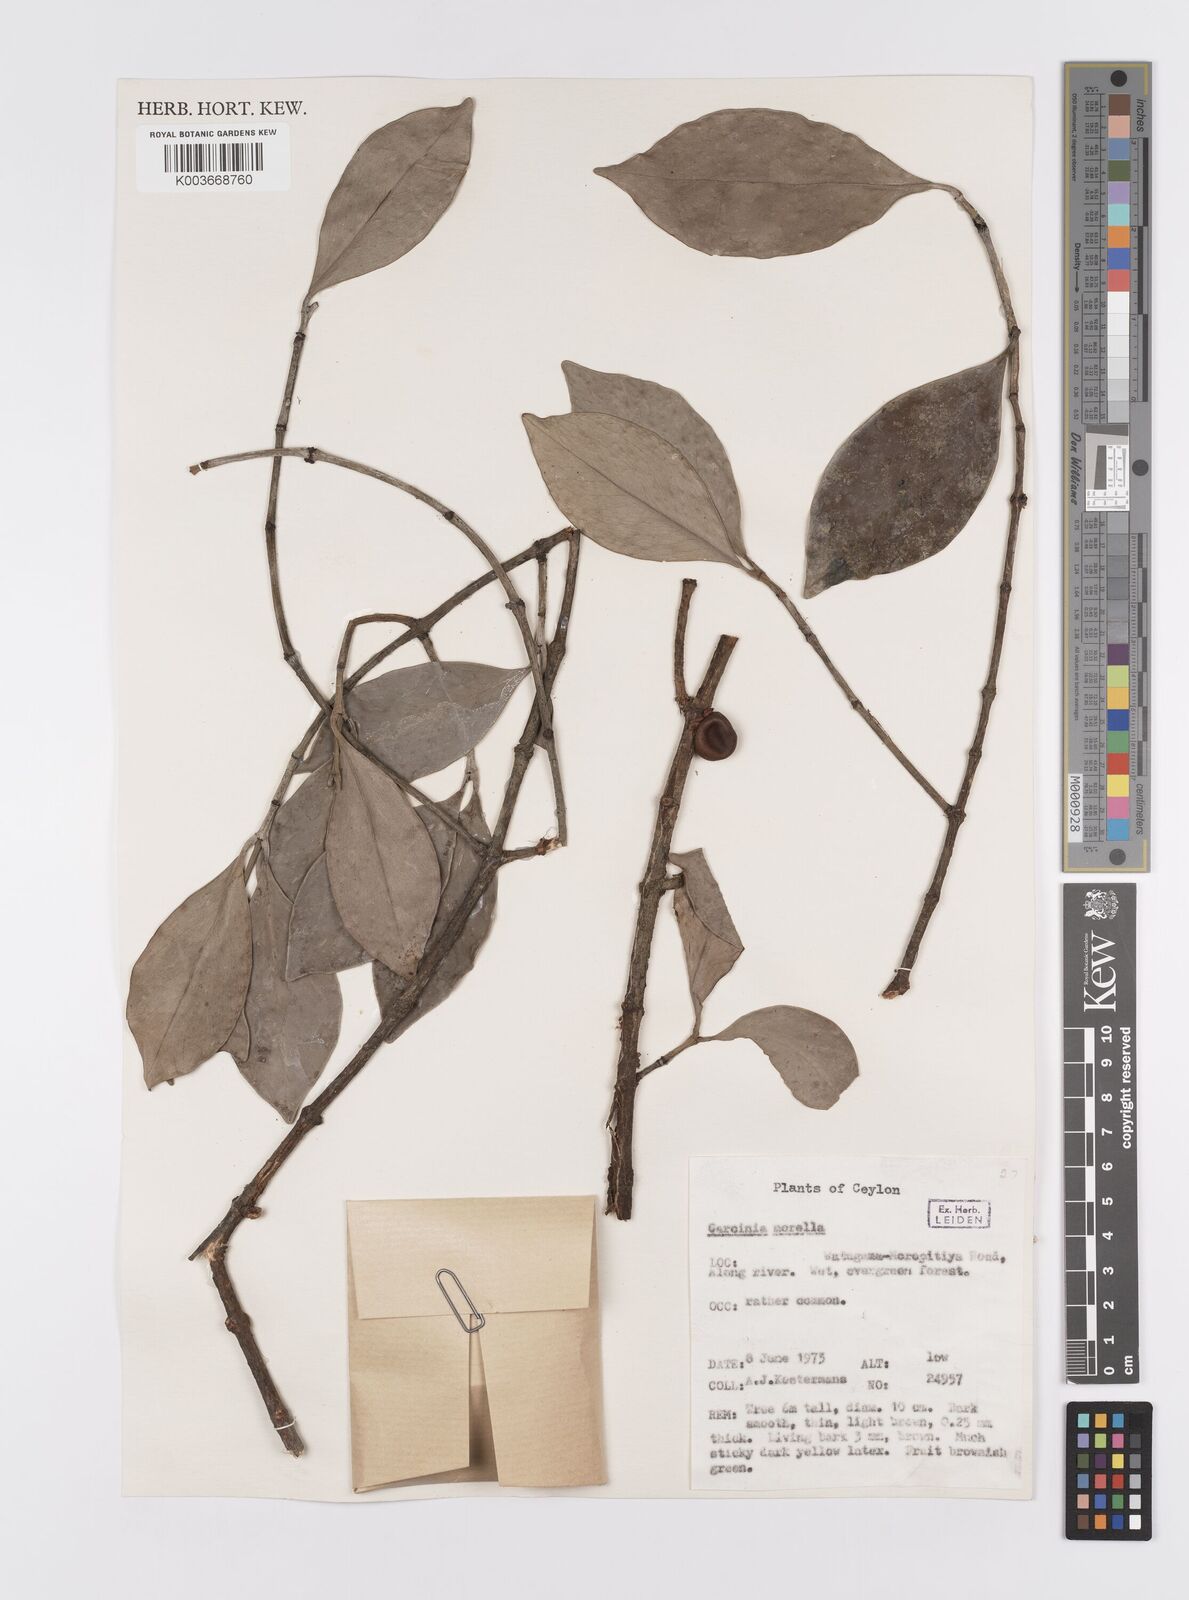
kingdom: Plantae
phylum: Tracheophyta
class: Magnoliopsida
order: Malpighiales
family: Clusiaceae
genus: Garcinia
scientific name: Garcinia morella
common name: Indian gamboge-tree
